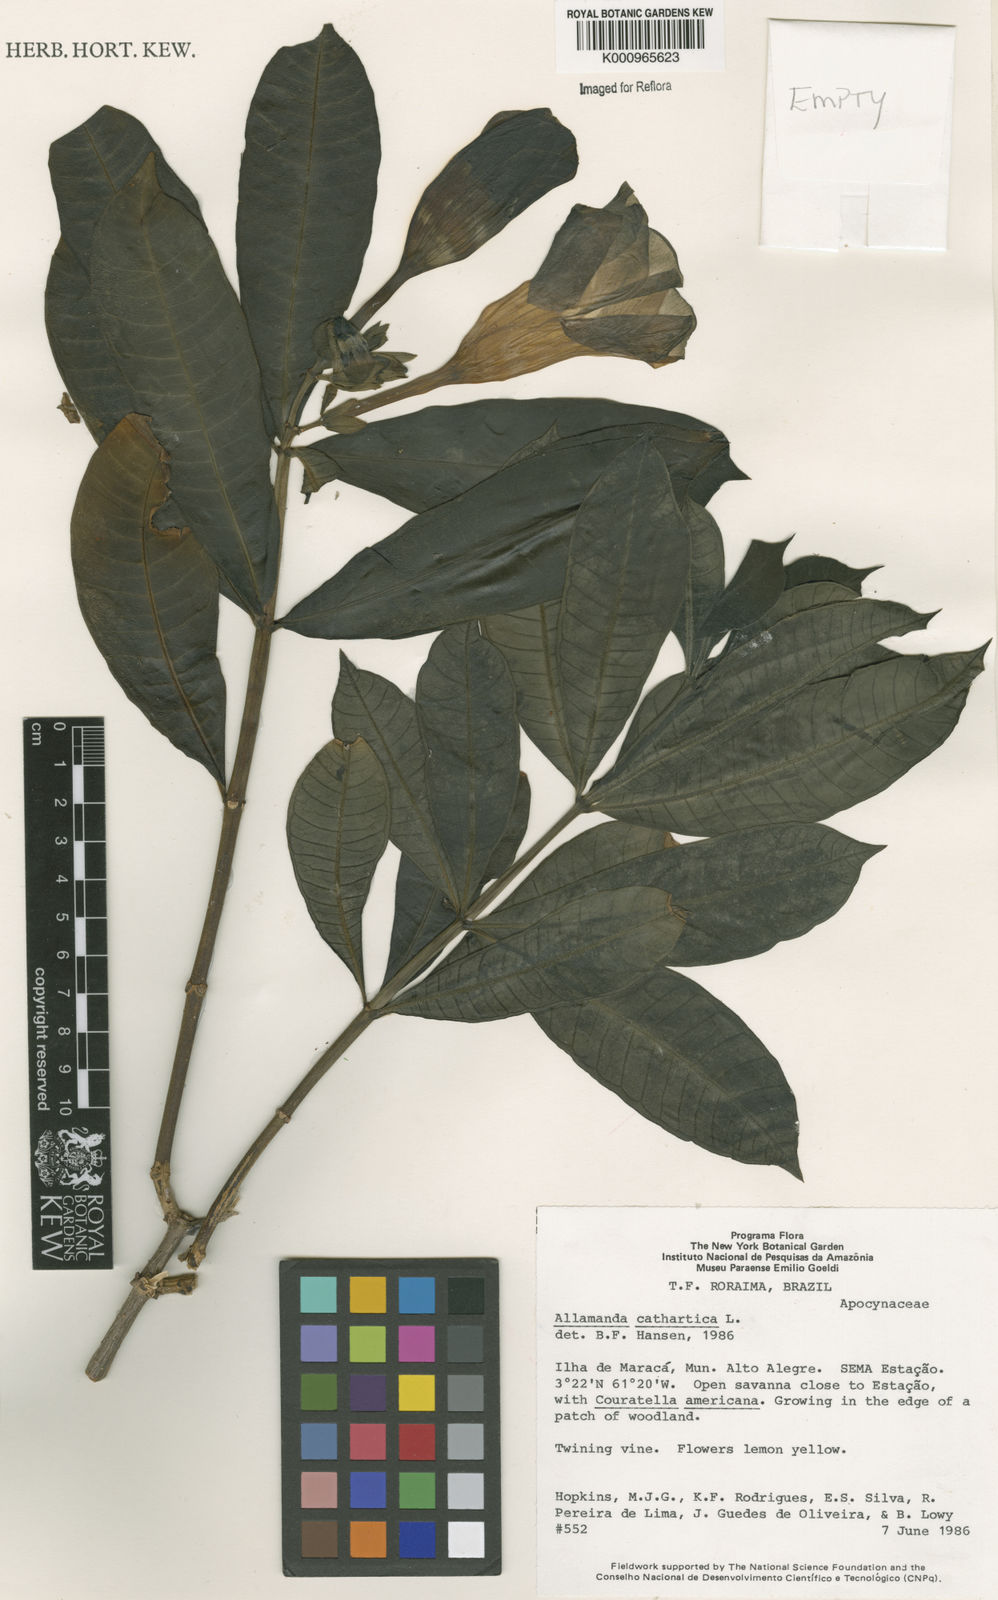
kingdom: Plantae
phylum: Tracheophyta
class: Magnoliopsida
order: Gentianales
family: Apocynaceae
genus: Allamanda
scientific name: Allamanda cathartica
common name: Golden trumpet
